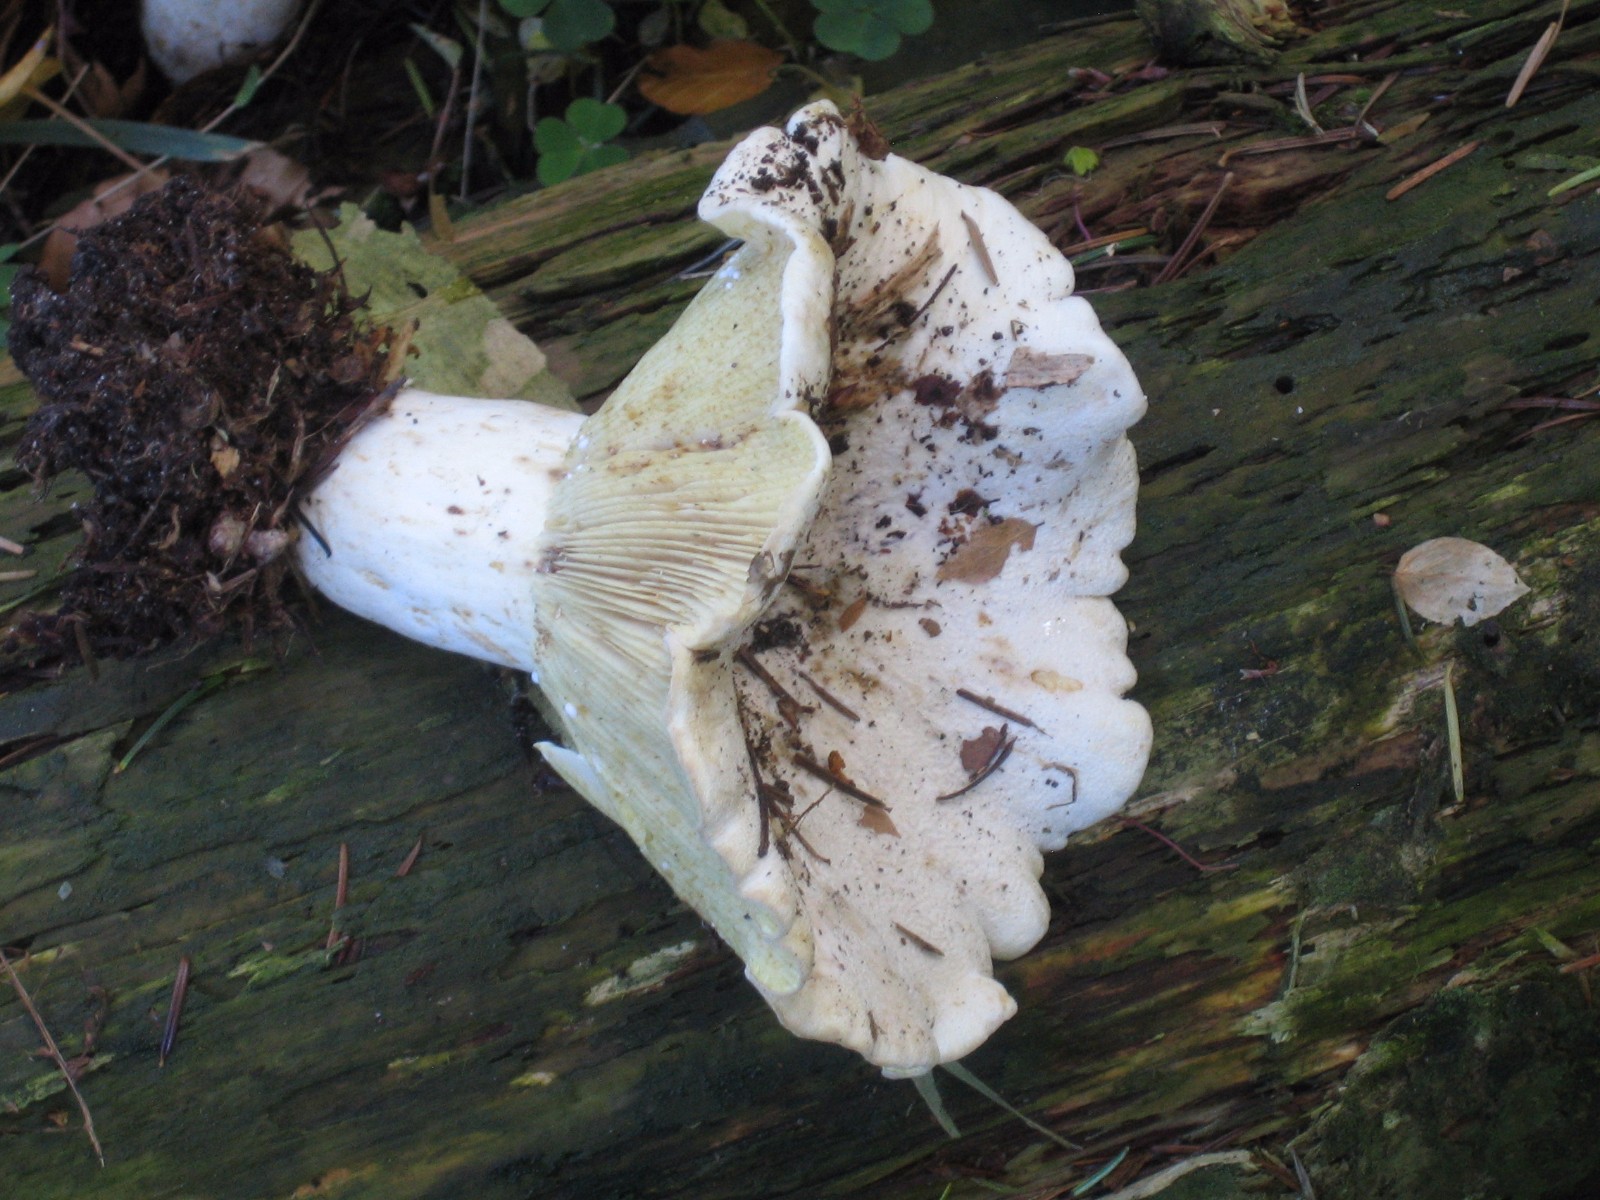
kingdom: Fungi
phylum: Basidiomycota
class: Agaricomycetes
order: Russulales
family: Russulaceae
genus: Lactifluus
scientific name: Lactifluus vellereus
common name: hvidfiltet mælkehat
